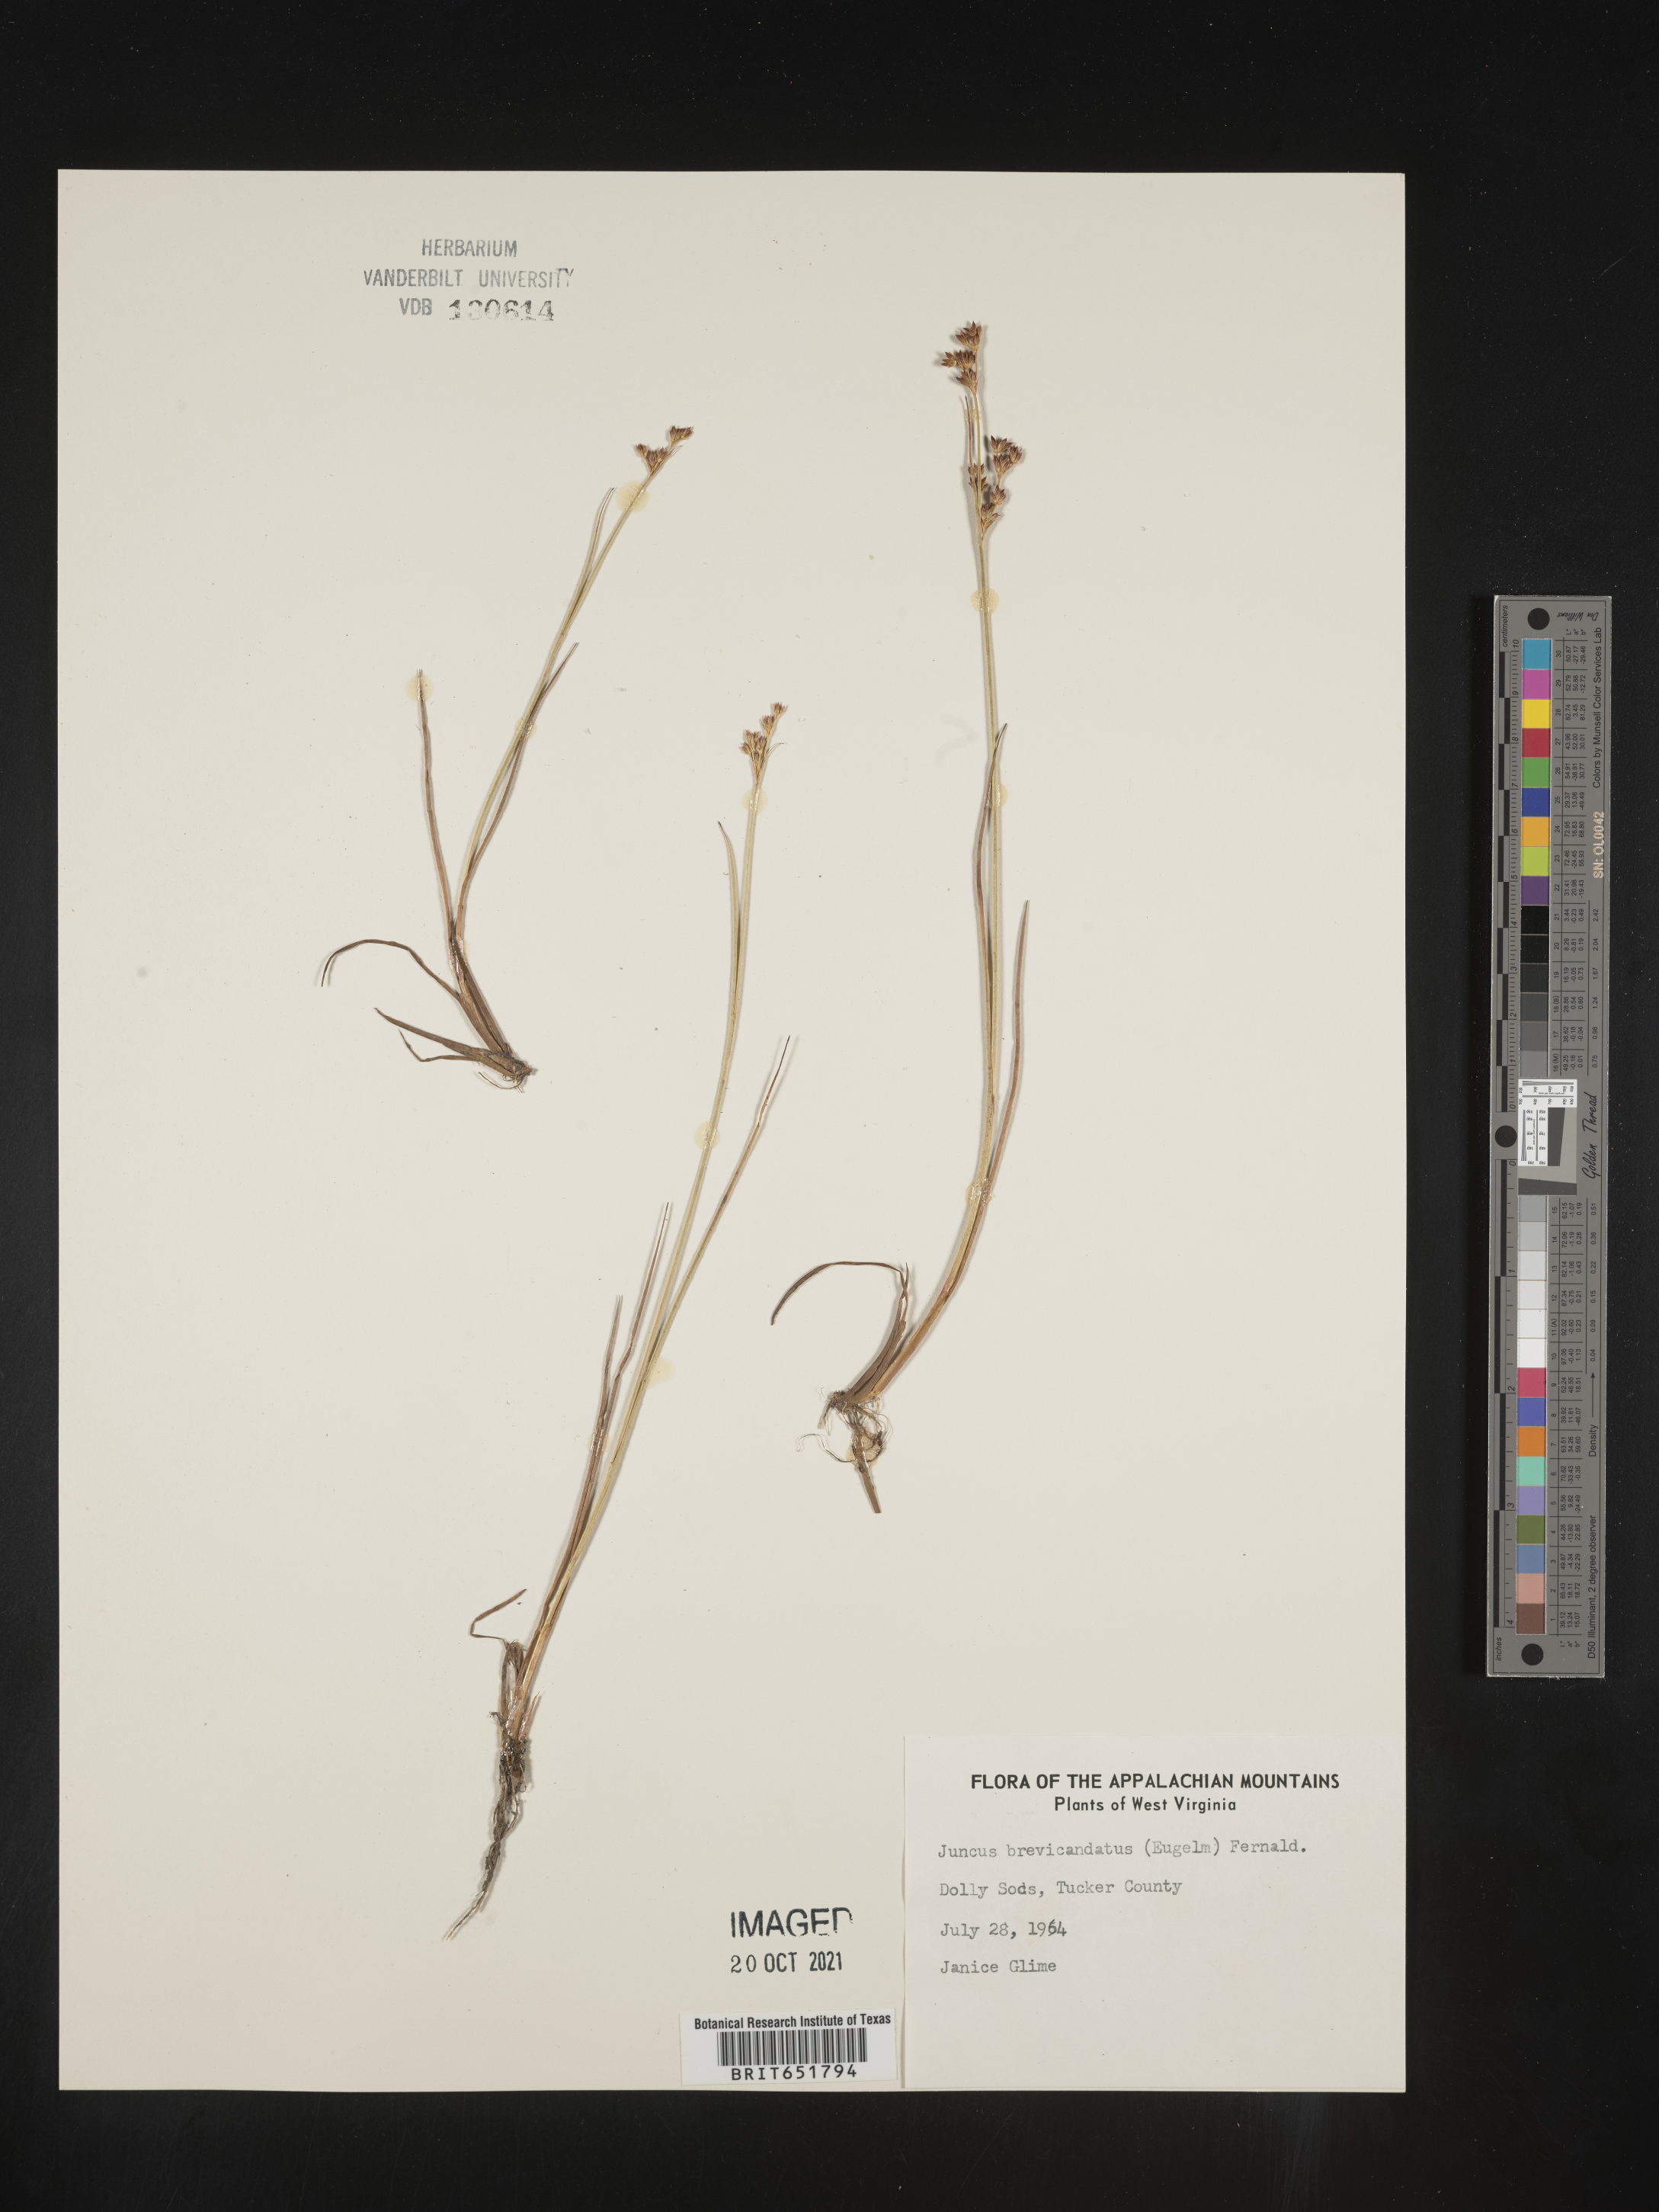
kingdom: Plantae
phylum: Tracheophyta
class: Liliopsida
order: Poales
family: Juncaceae
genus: Juncus
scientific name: Juncus brevicaudatus
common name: Narrow-panicle rush
